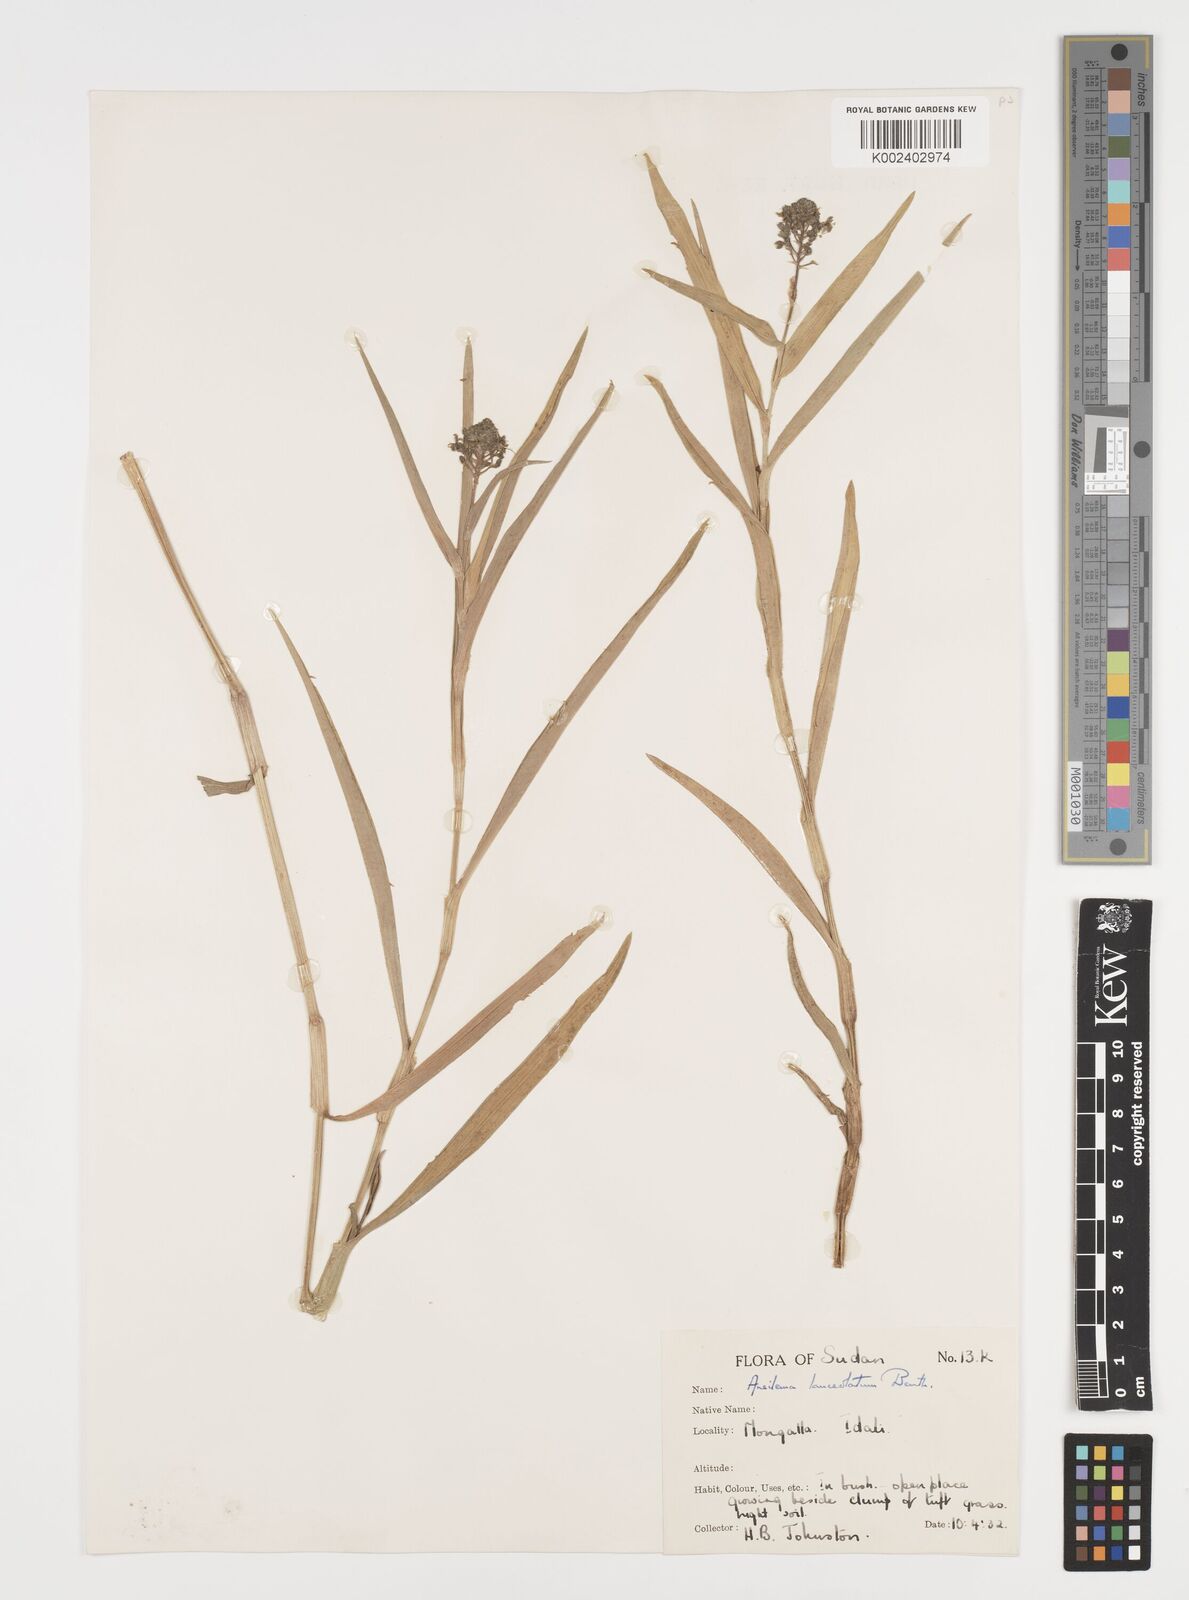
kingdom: Plantae
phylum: Tracheophyta
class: Liliopsida
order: Commelinales
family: Commelinaceae
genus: Aneilema
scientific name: Aneilema lanceolatum
